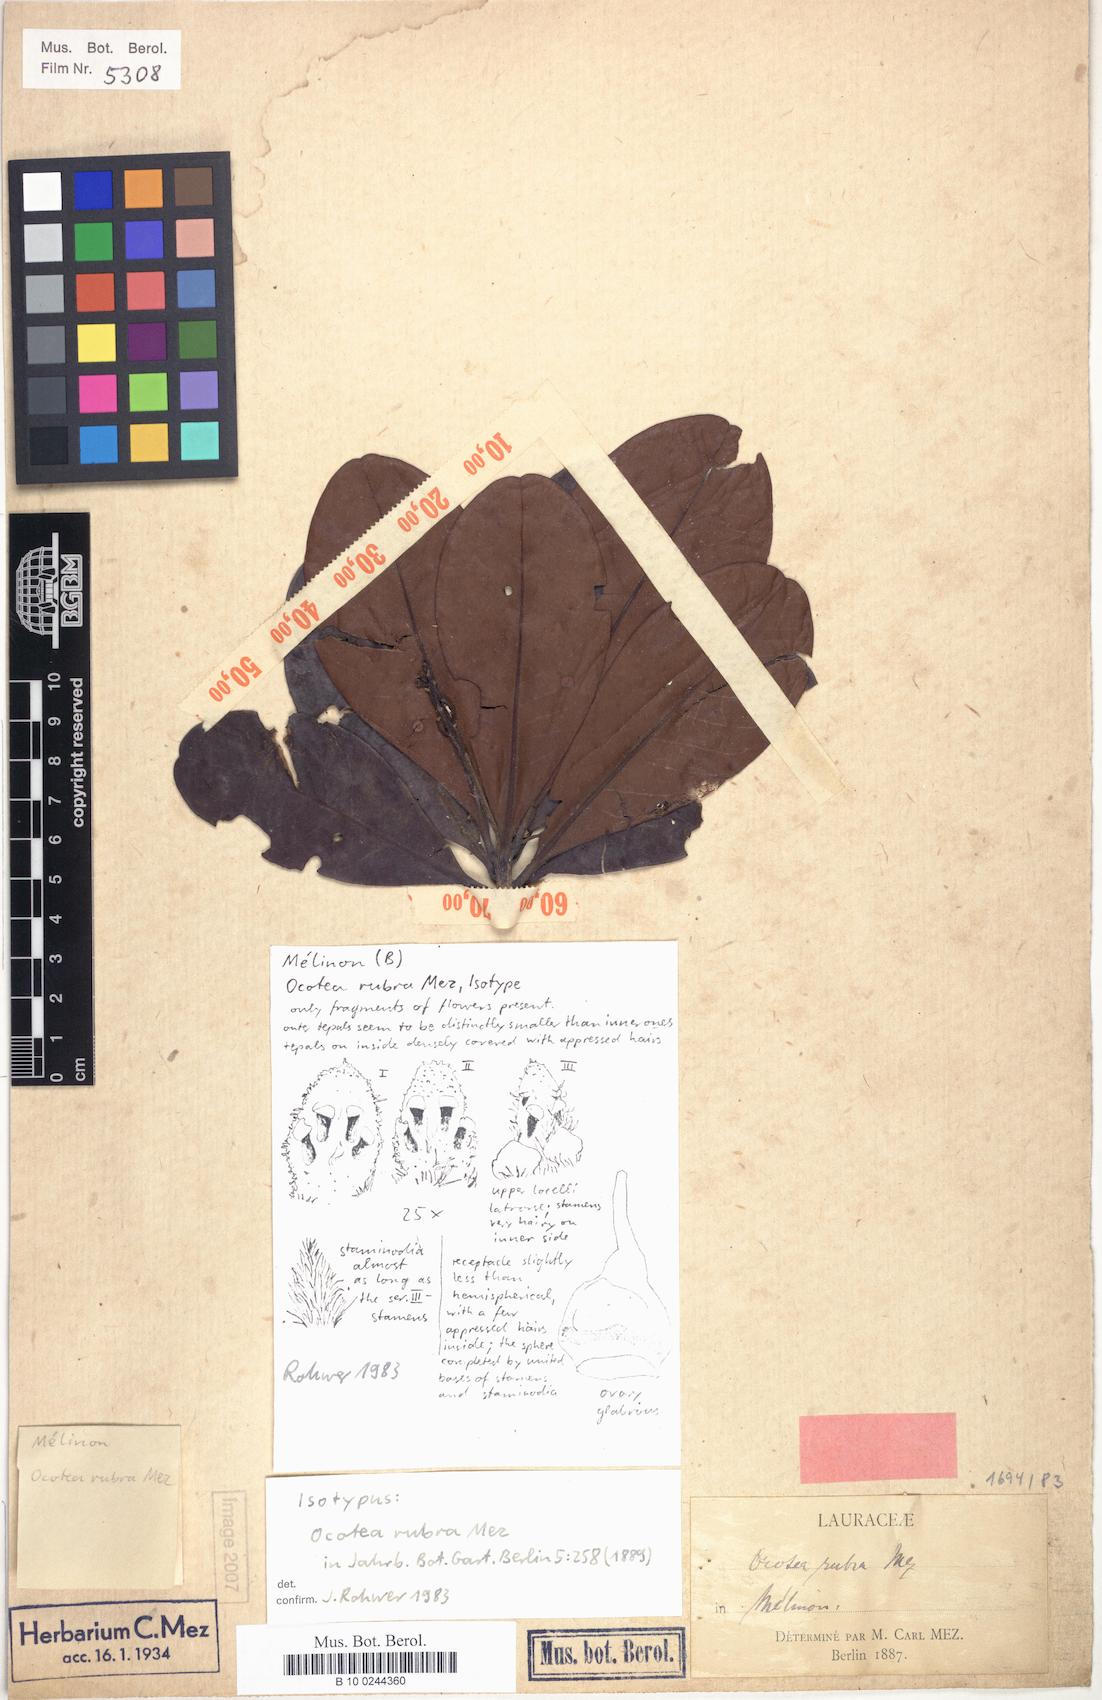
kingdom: Plantae
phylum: Tracheophyta
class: Magnoliopsida
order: Laurales
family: Lauraceae
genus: Sextonia
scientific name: Sextonia rubra
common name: Red louro
